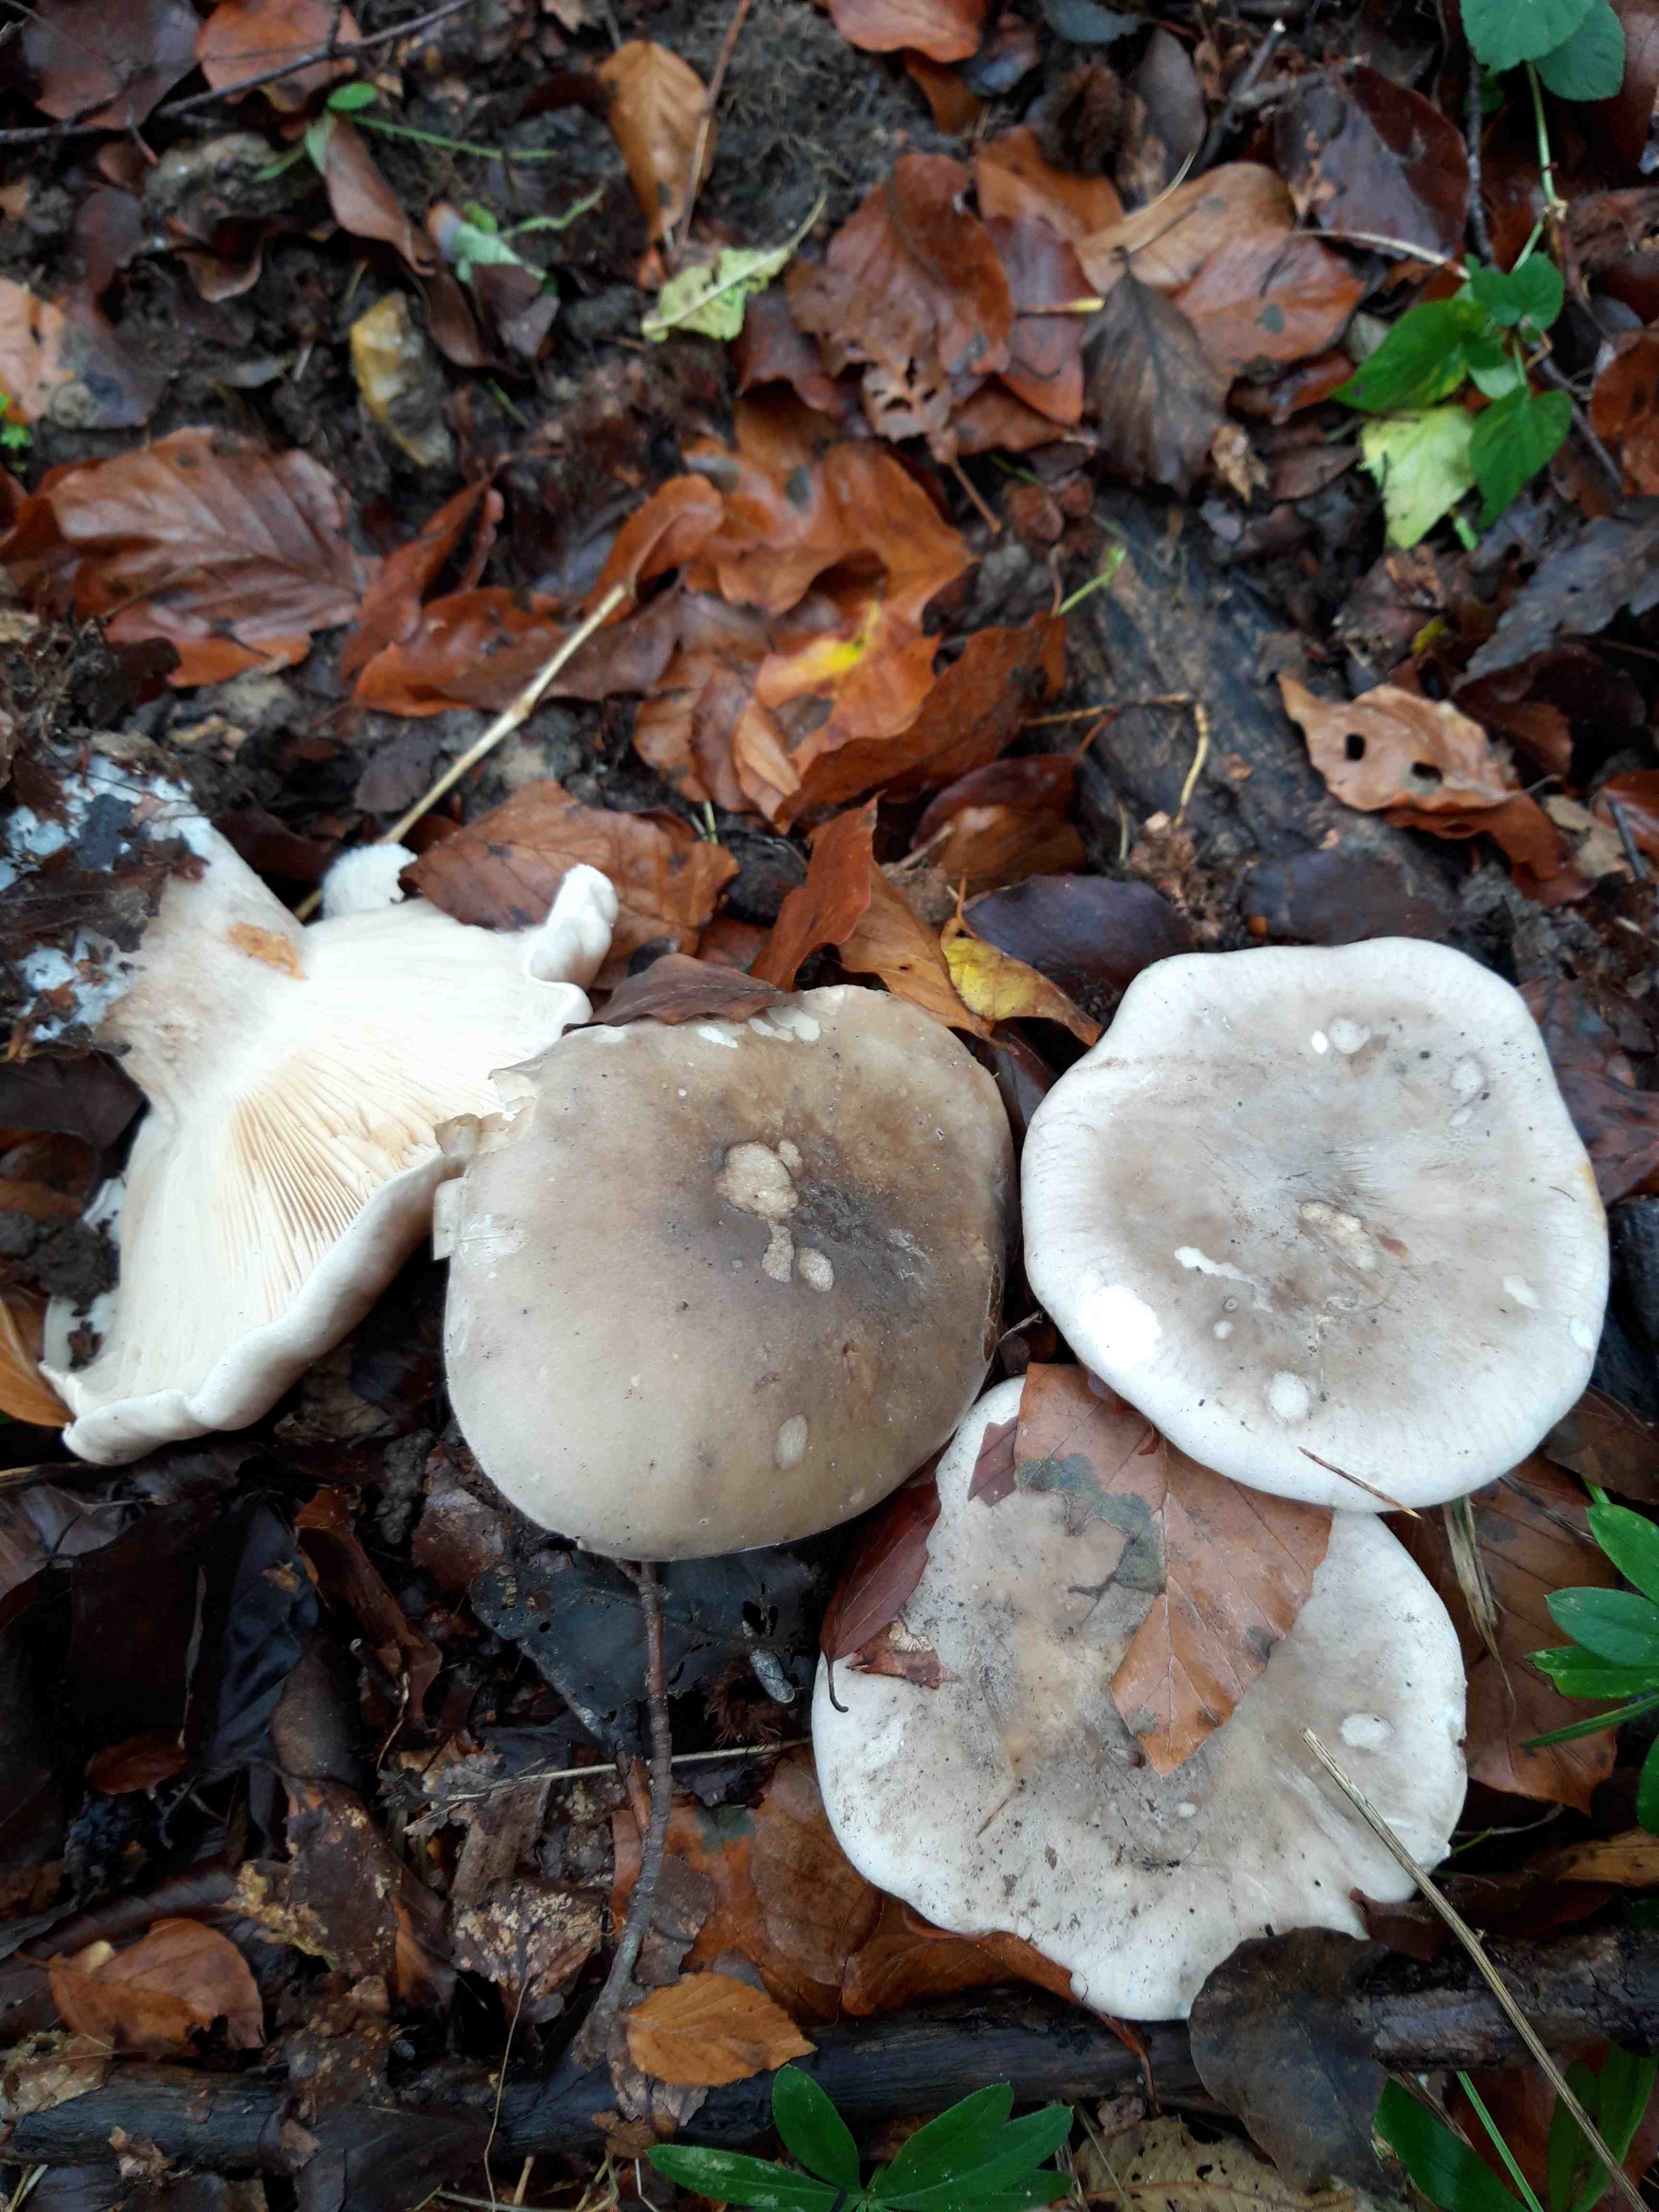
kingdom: Fungi
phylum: Basidiomycota
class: Agaricomycetes
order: Agaricales
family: Tricholomataceae
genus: Clitocybe
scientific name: Clitocybe nebularis
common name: tåge-tragthat
